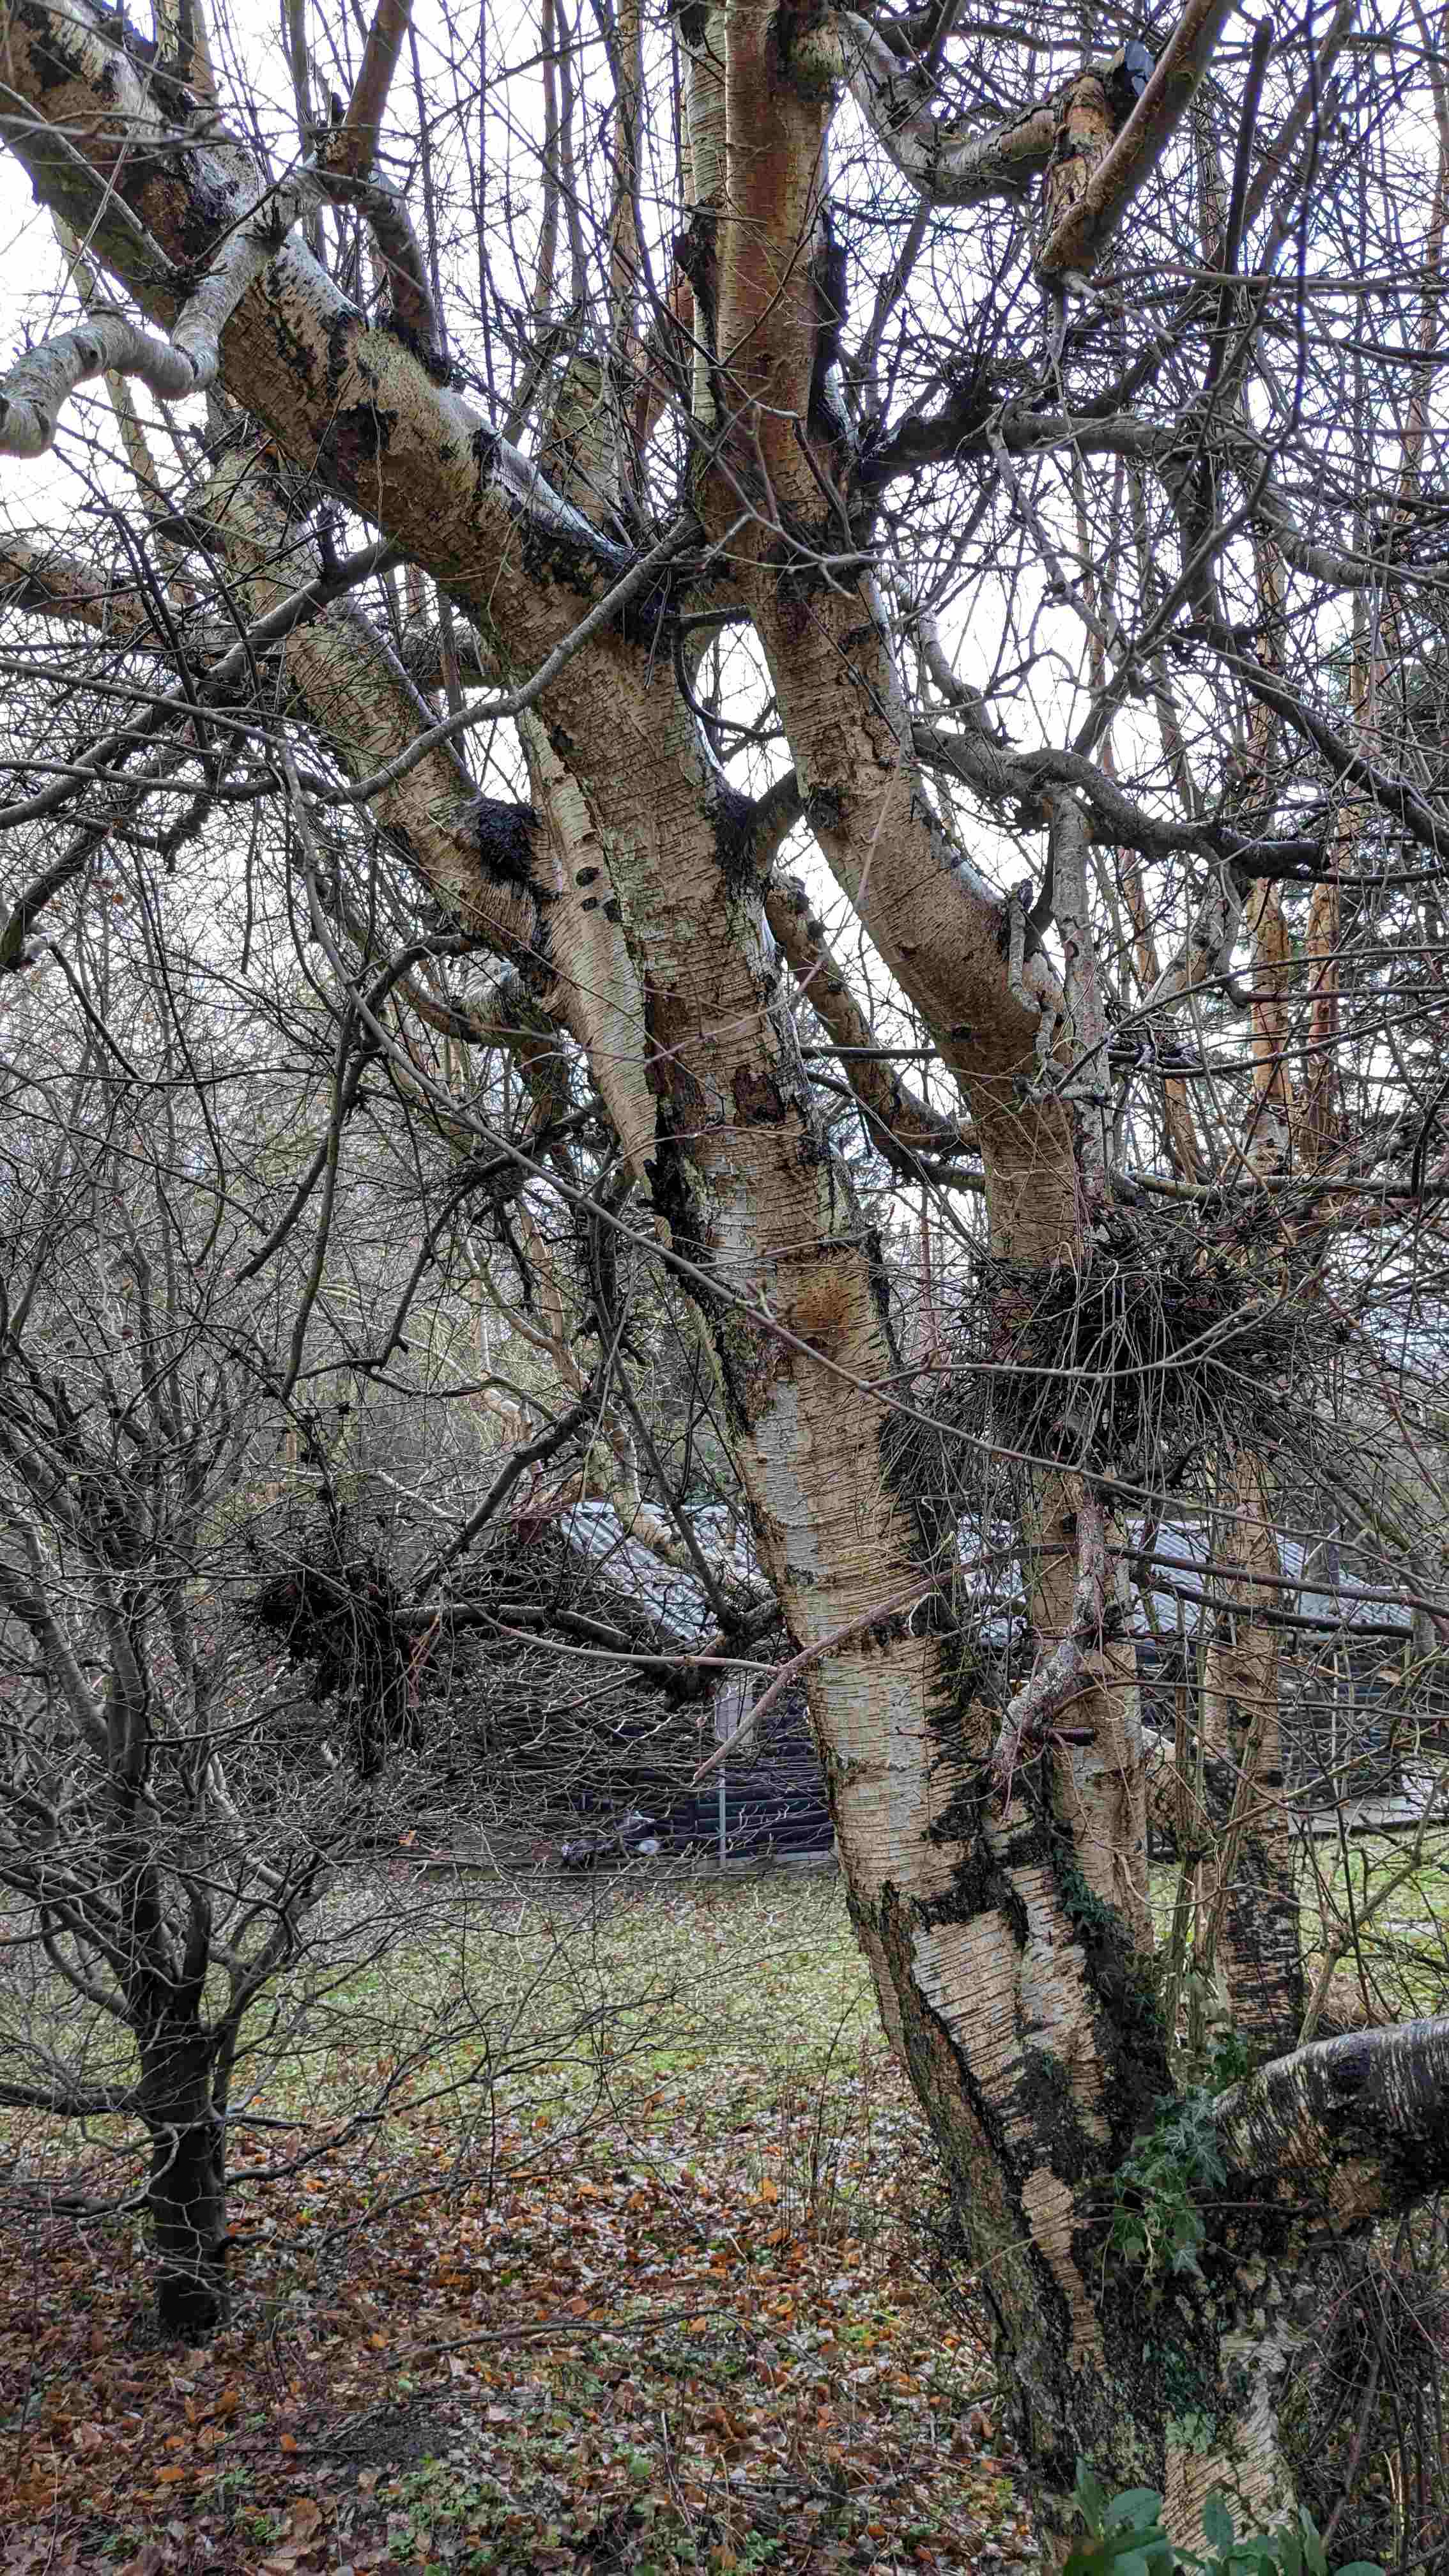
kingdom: Fungi
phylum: Ascomycota
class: Taphrinomycetes
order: Taphrinales
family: Taphrinaceae
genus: Taphrina
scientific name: Taphrina betulina
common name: hekse-sækdug
